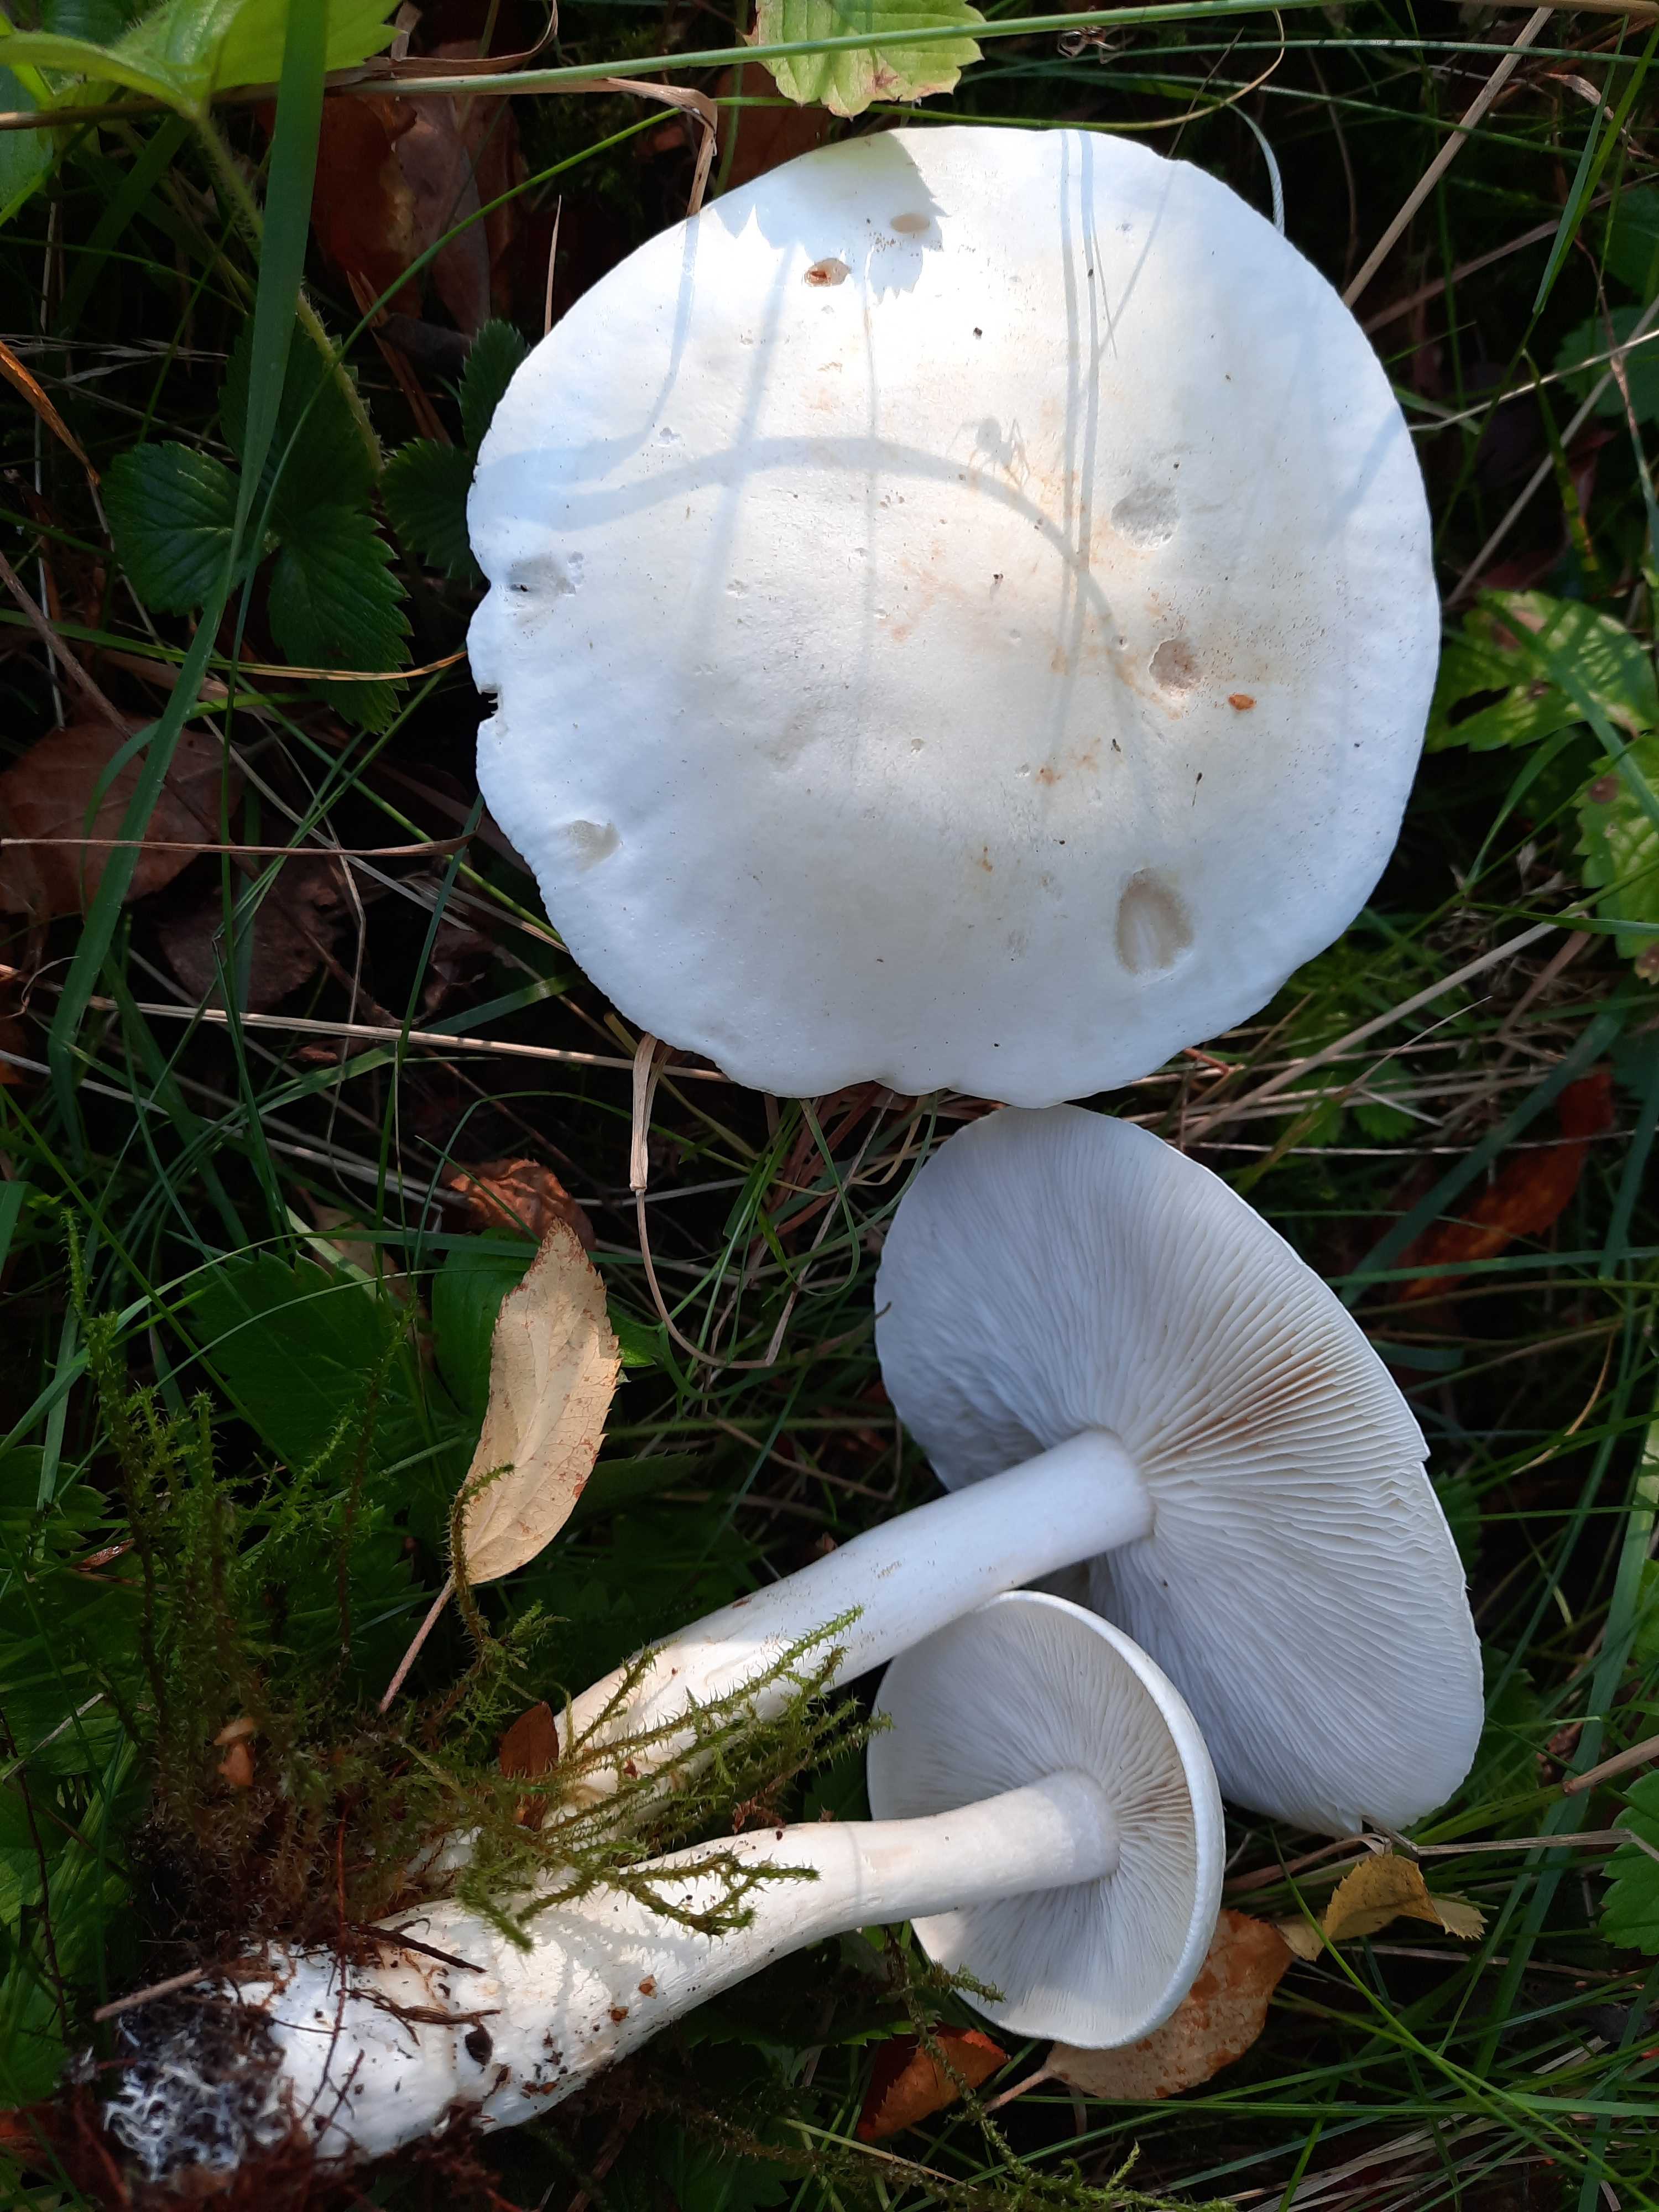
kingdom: Fungi
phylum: Basidiomycota
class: Agaricomycetes
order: Agaricales
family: Tricholomataceae
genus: Tricholoma
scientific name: Tricholoma stiparophyllum
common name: hvid ridderhat
